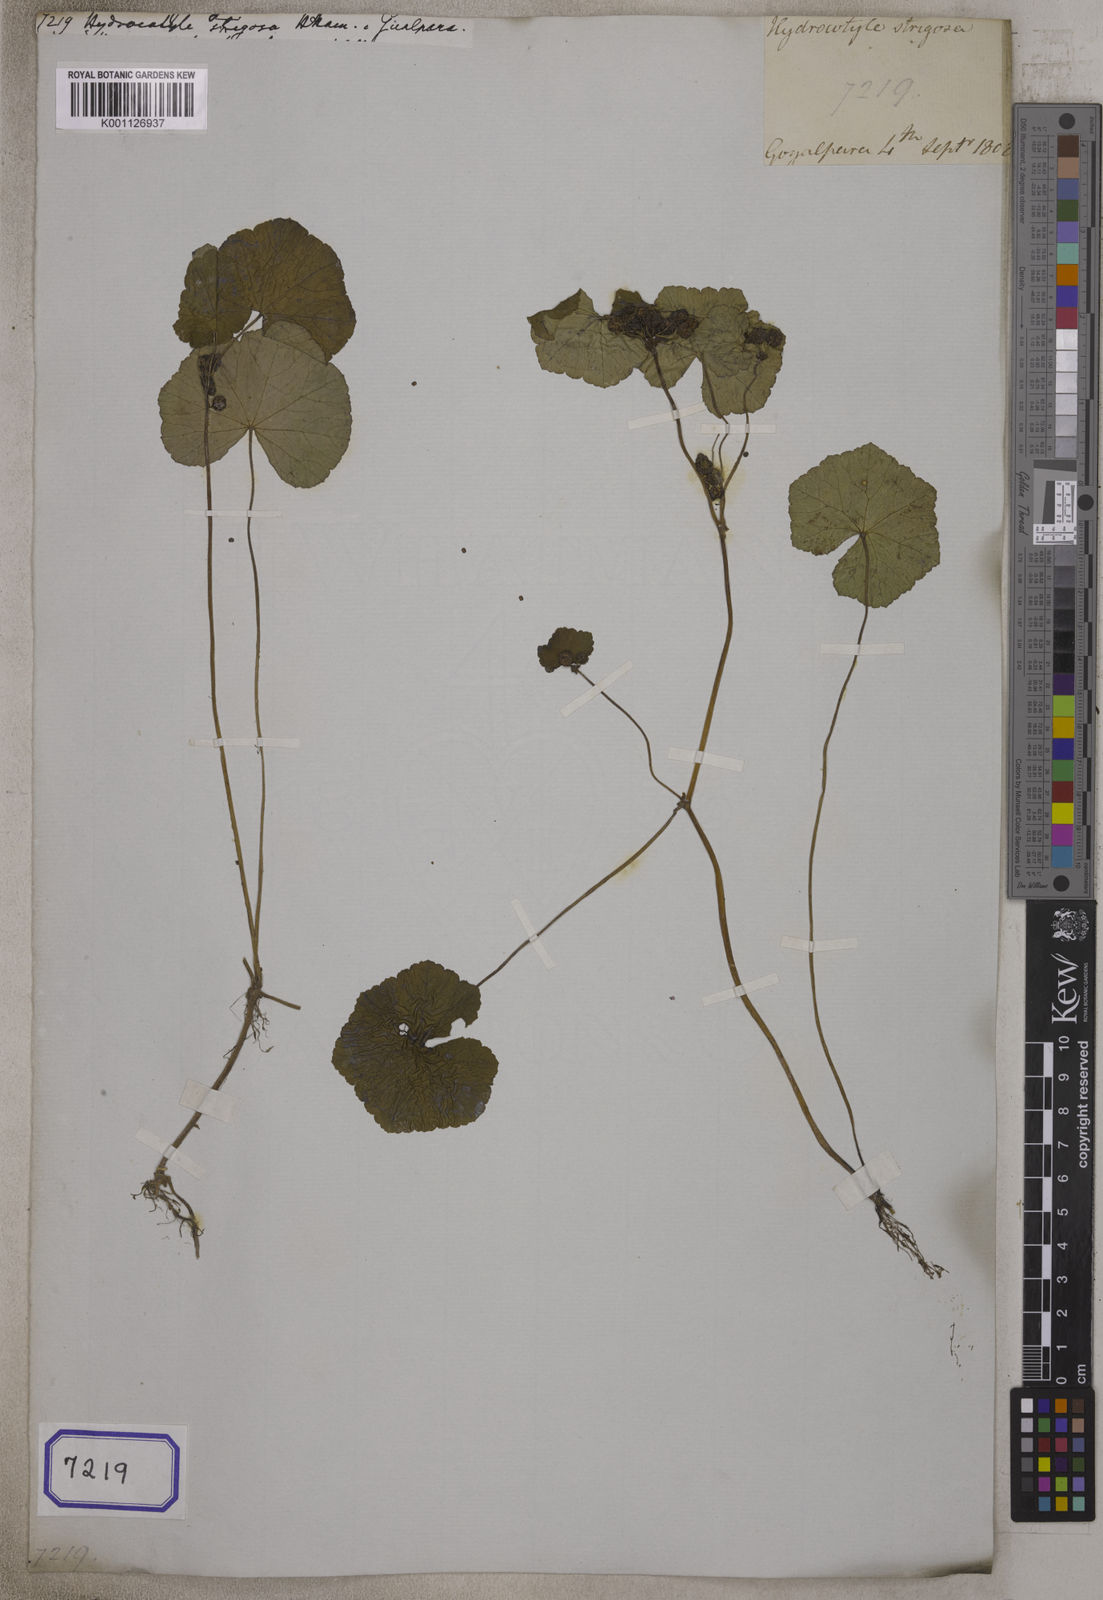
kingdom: Plantae
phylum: Tracheophyta
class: Magnoliopsida
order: Apiales
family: Araliaceae
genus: Hydrocotyle
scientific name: Hydrocotyle javanica
